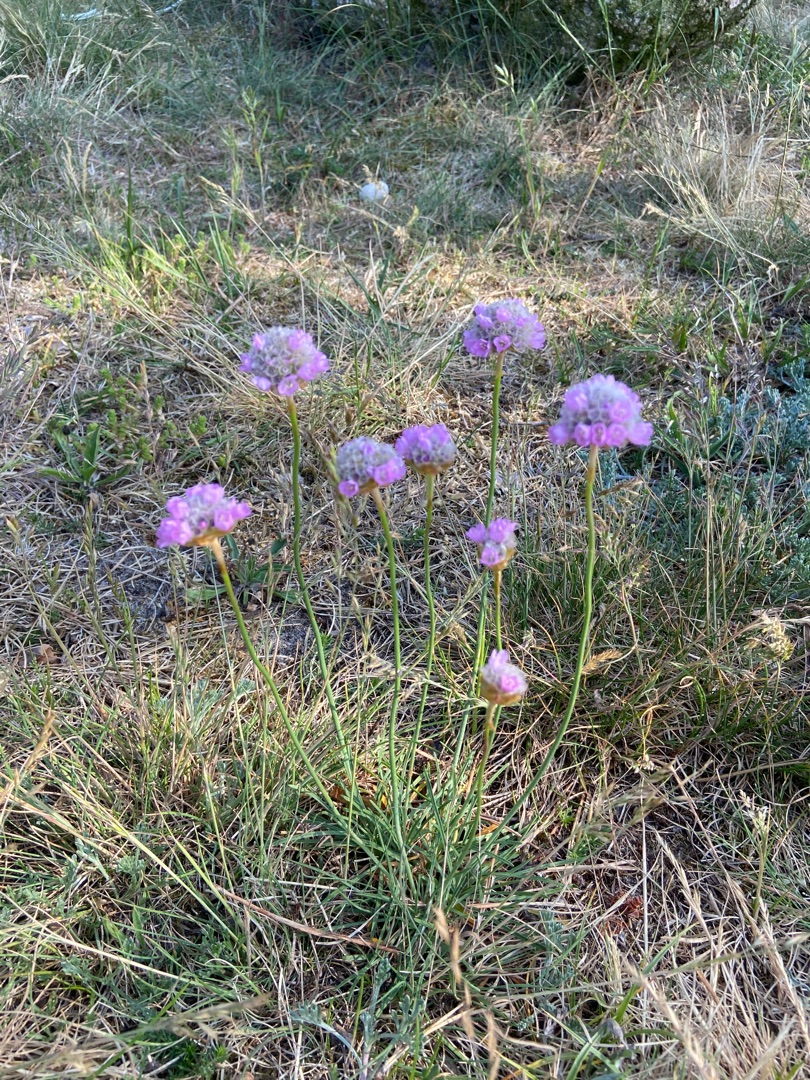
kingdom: Plantae
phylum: Tracheophyta
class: Magnoliopsida
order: Caryophyllales
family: Plumbaginaceae
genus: Armeria
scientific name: Armeria maritima
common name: Engelskgræs
